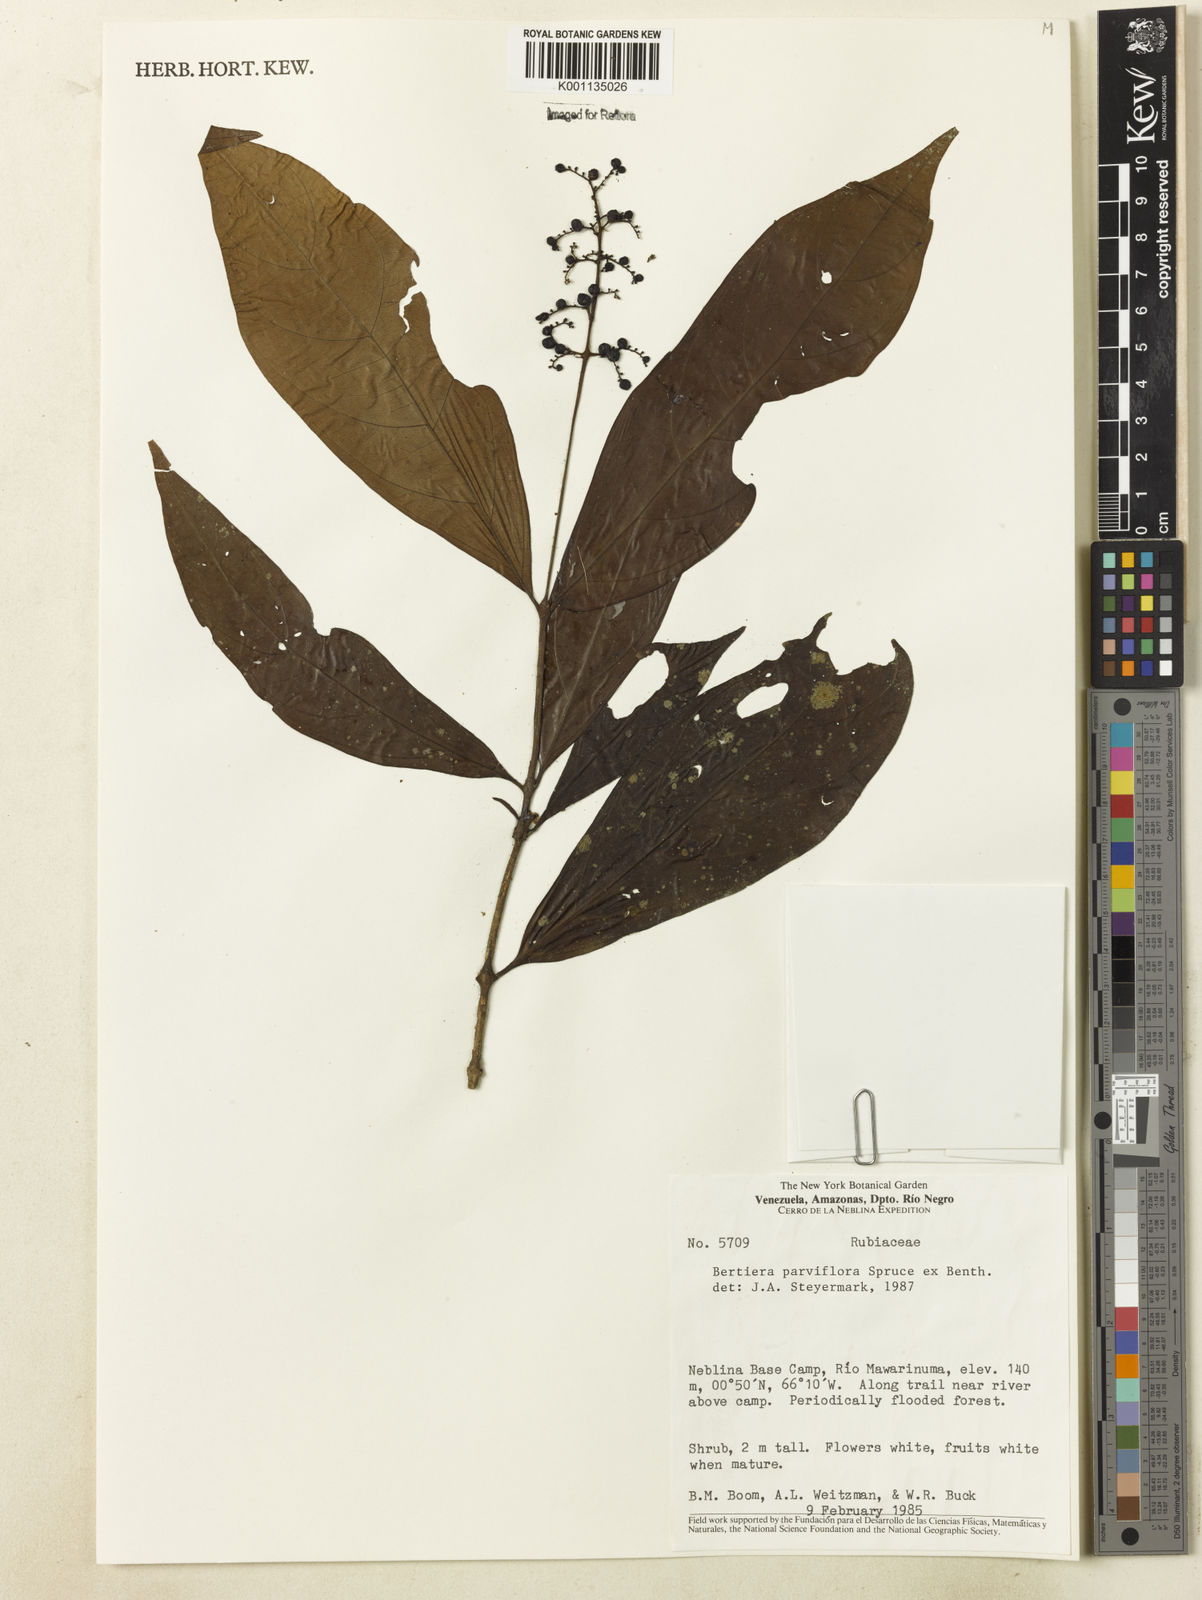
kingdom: Plantae
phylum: Tracheophyta
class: Magnoliopsida
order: Gentianales
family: Rubiaceae
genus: Bertiera
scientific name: Bertiera parviflora
